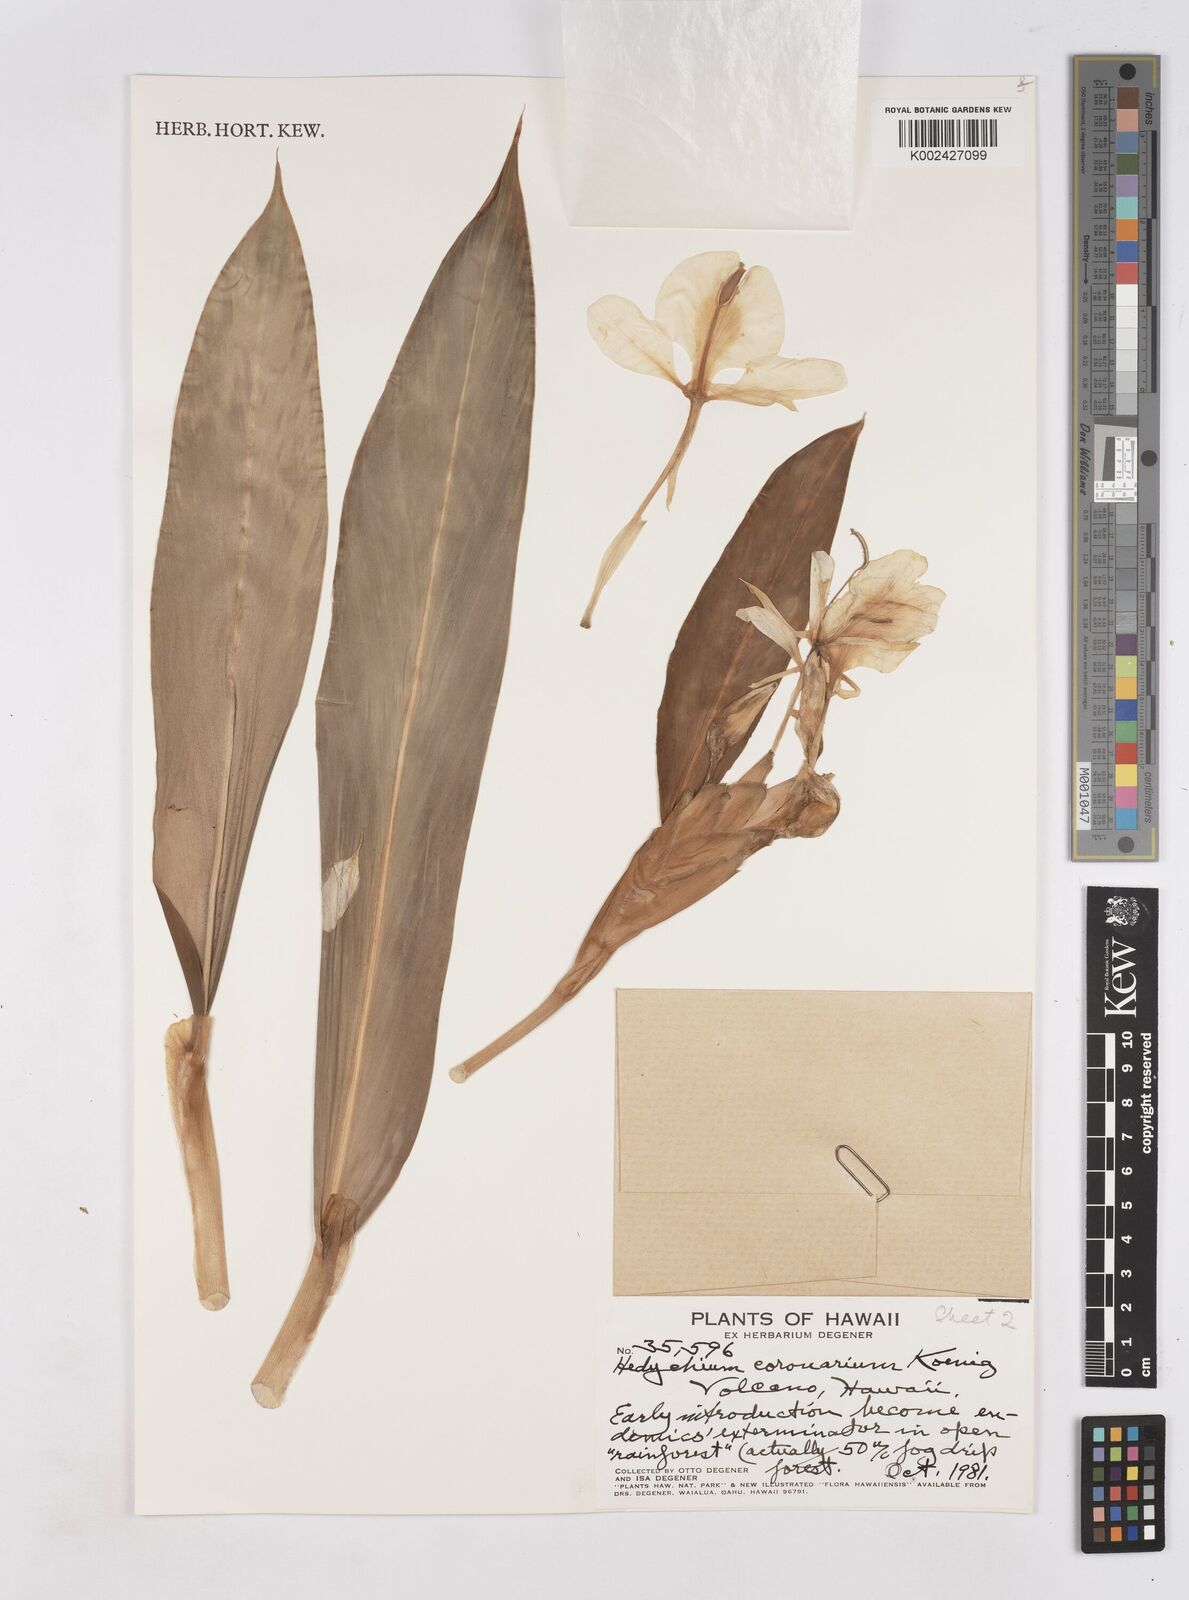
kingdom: Plantae
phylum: Tracheophyta
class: Liliopsida
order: Zingiberales
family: Zingiberaceae
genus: Hedychium
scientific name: Hedychium coronarium
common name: White garland-lily
